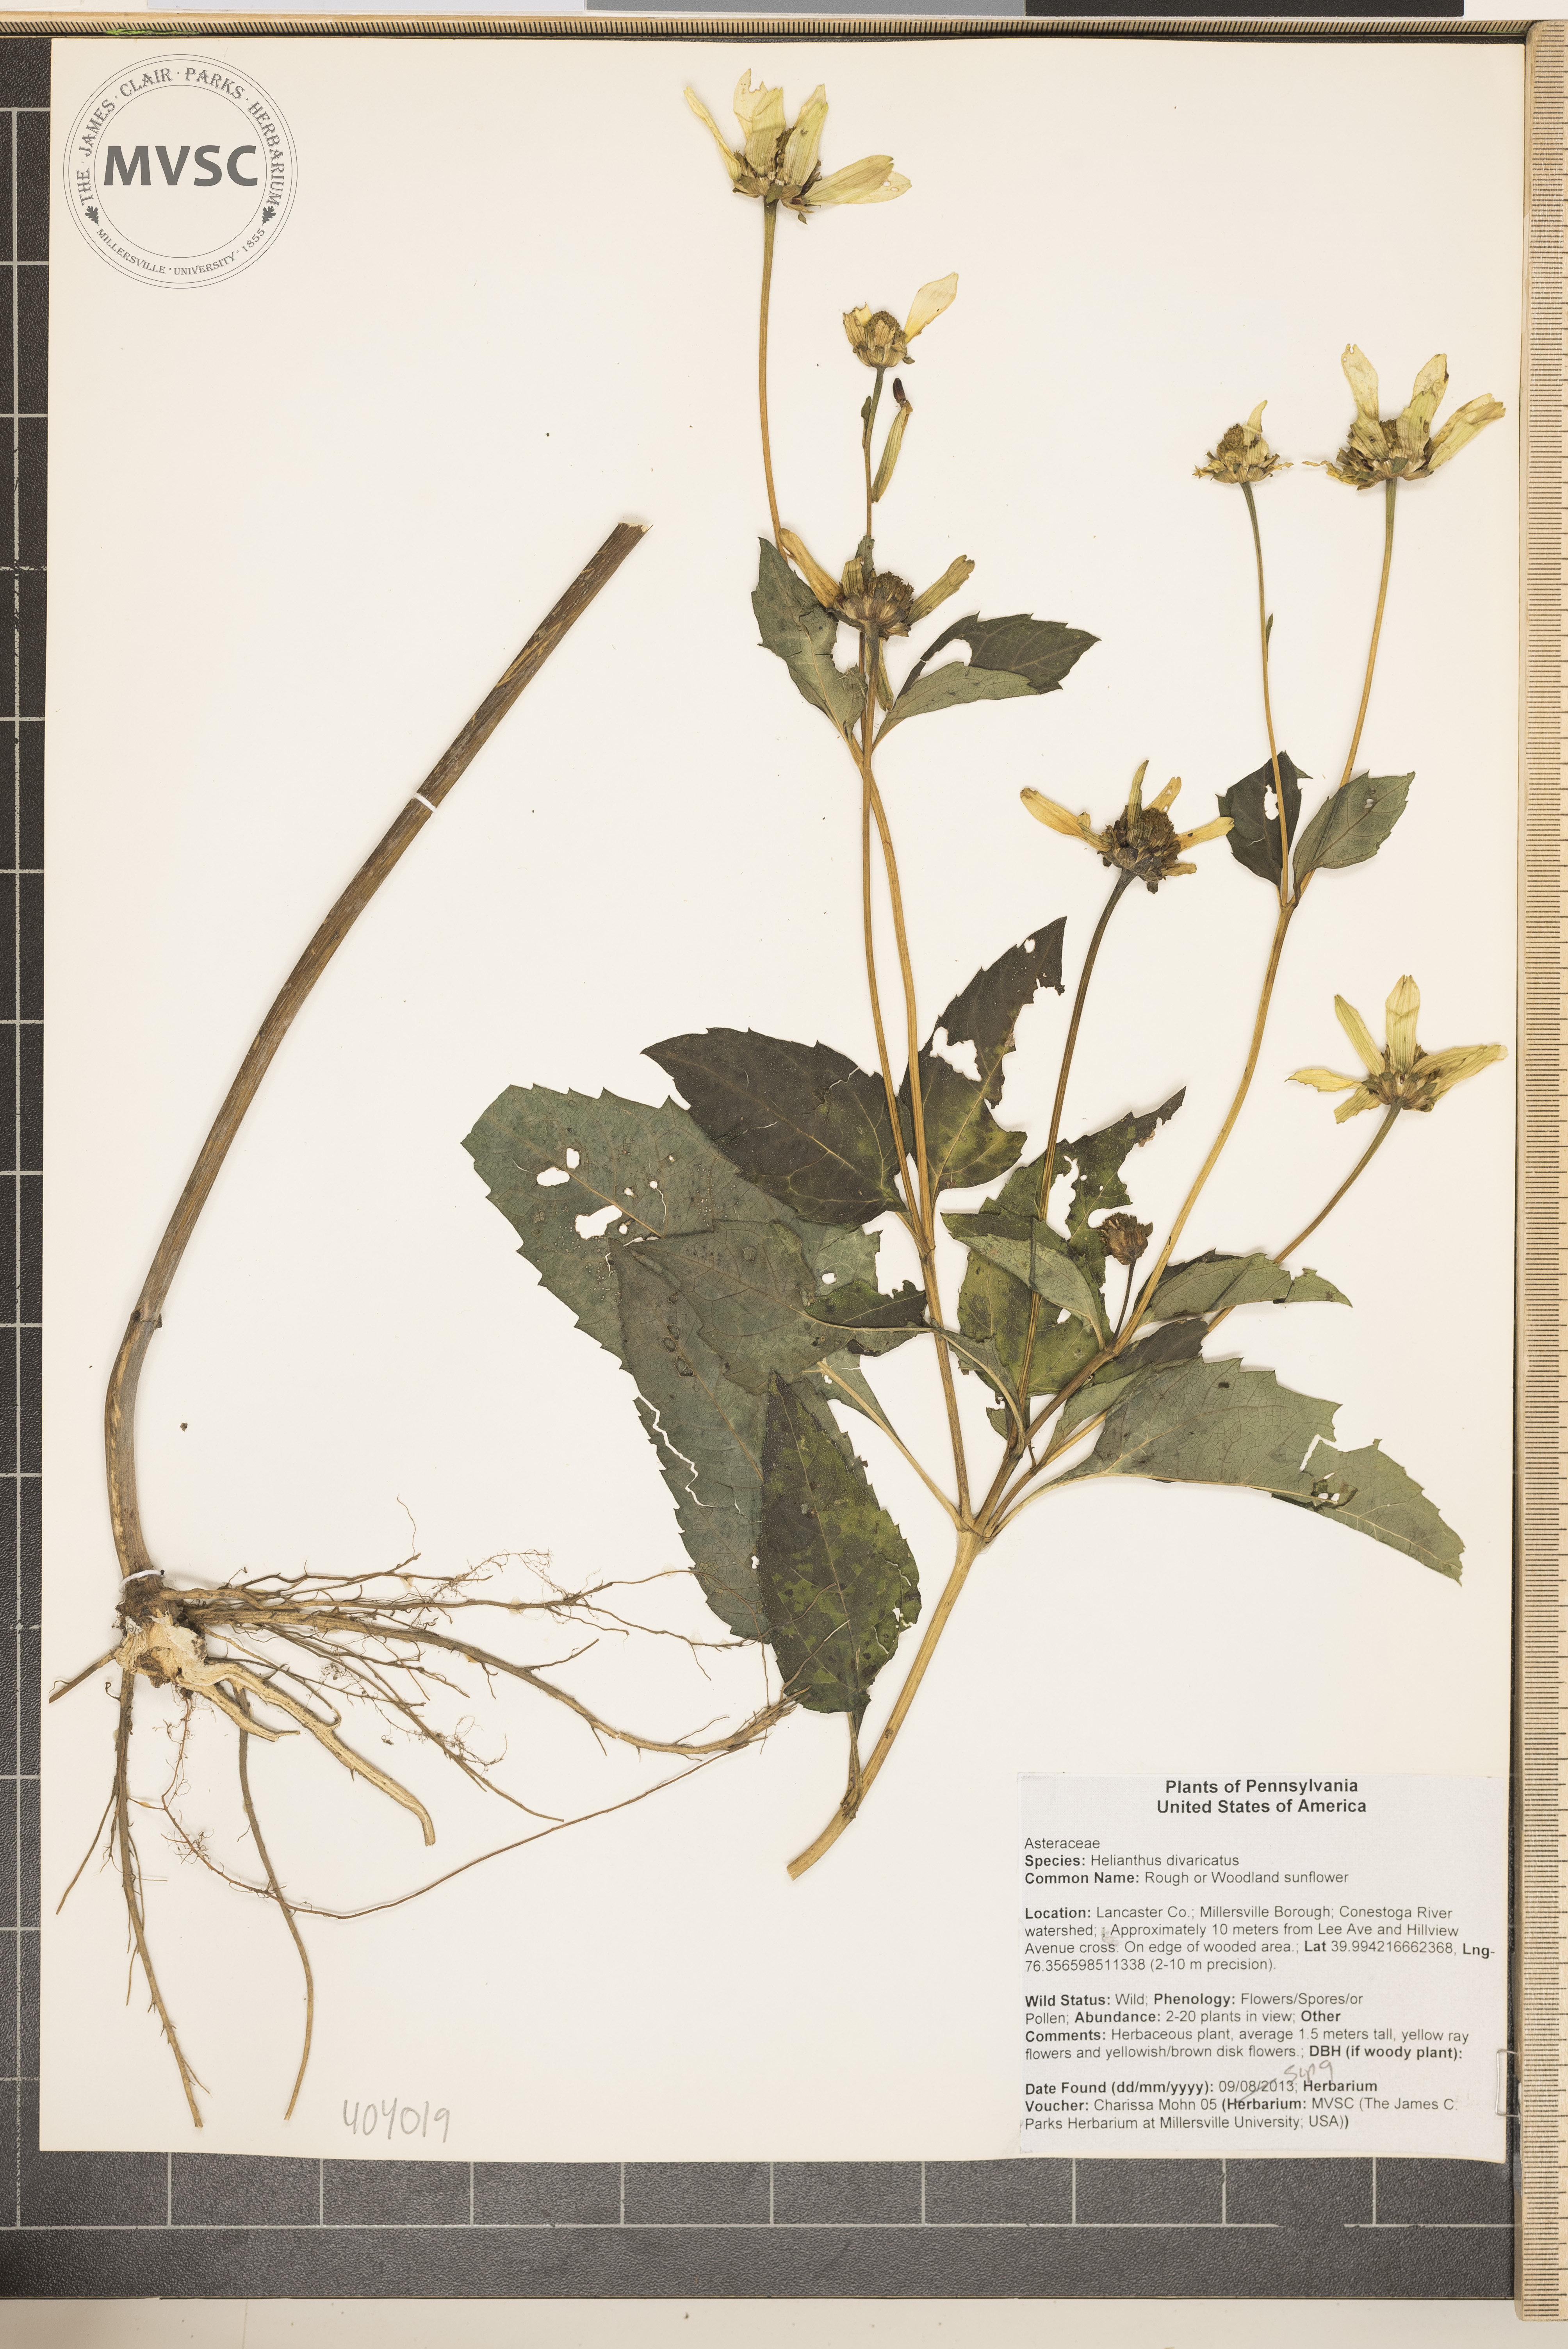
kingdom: Plantae
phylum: Tracheophyta
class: Magnoliopsida
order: Asterales
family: Asteraceae
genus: Helianthus
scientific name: Helianthus divaricatus
